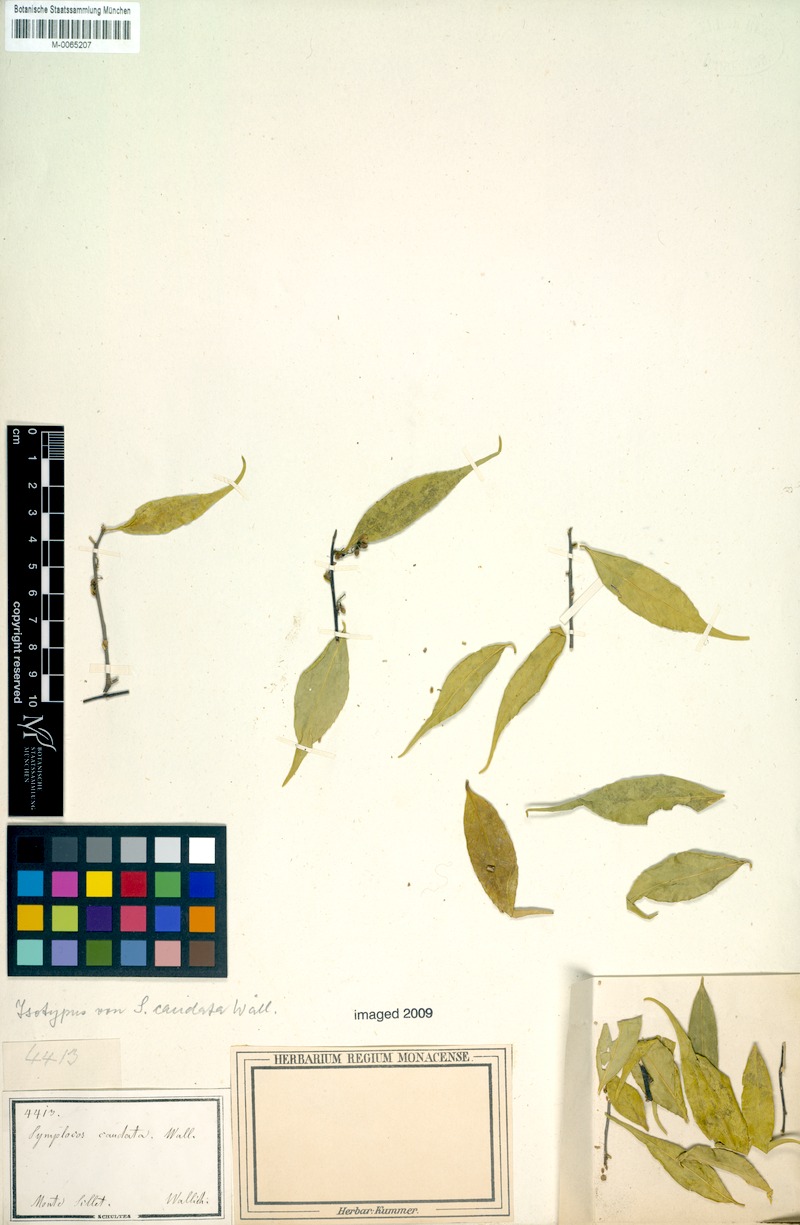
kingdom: Plantae
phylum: Tracheophyta
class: Magnoliopsida
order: Ericales
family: Symplocaceae
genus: Symplocos
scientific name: Symplocos sumuntia
